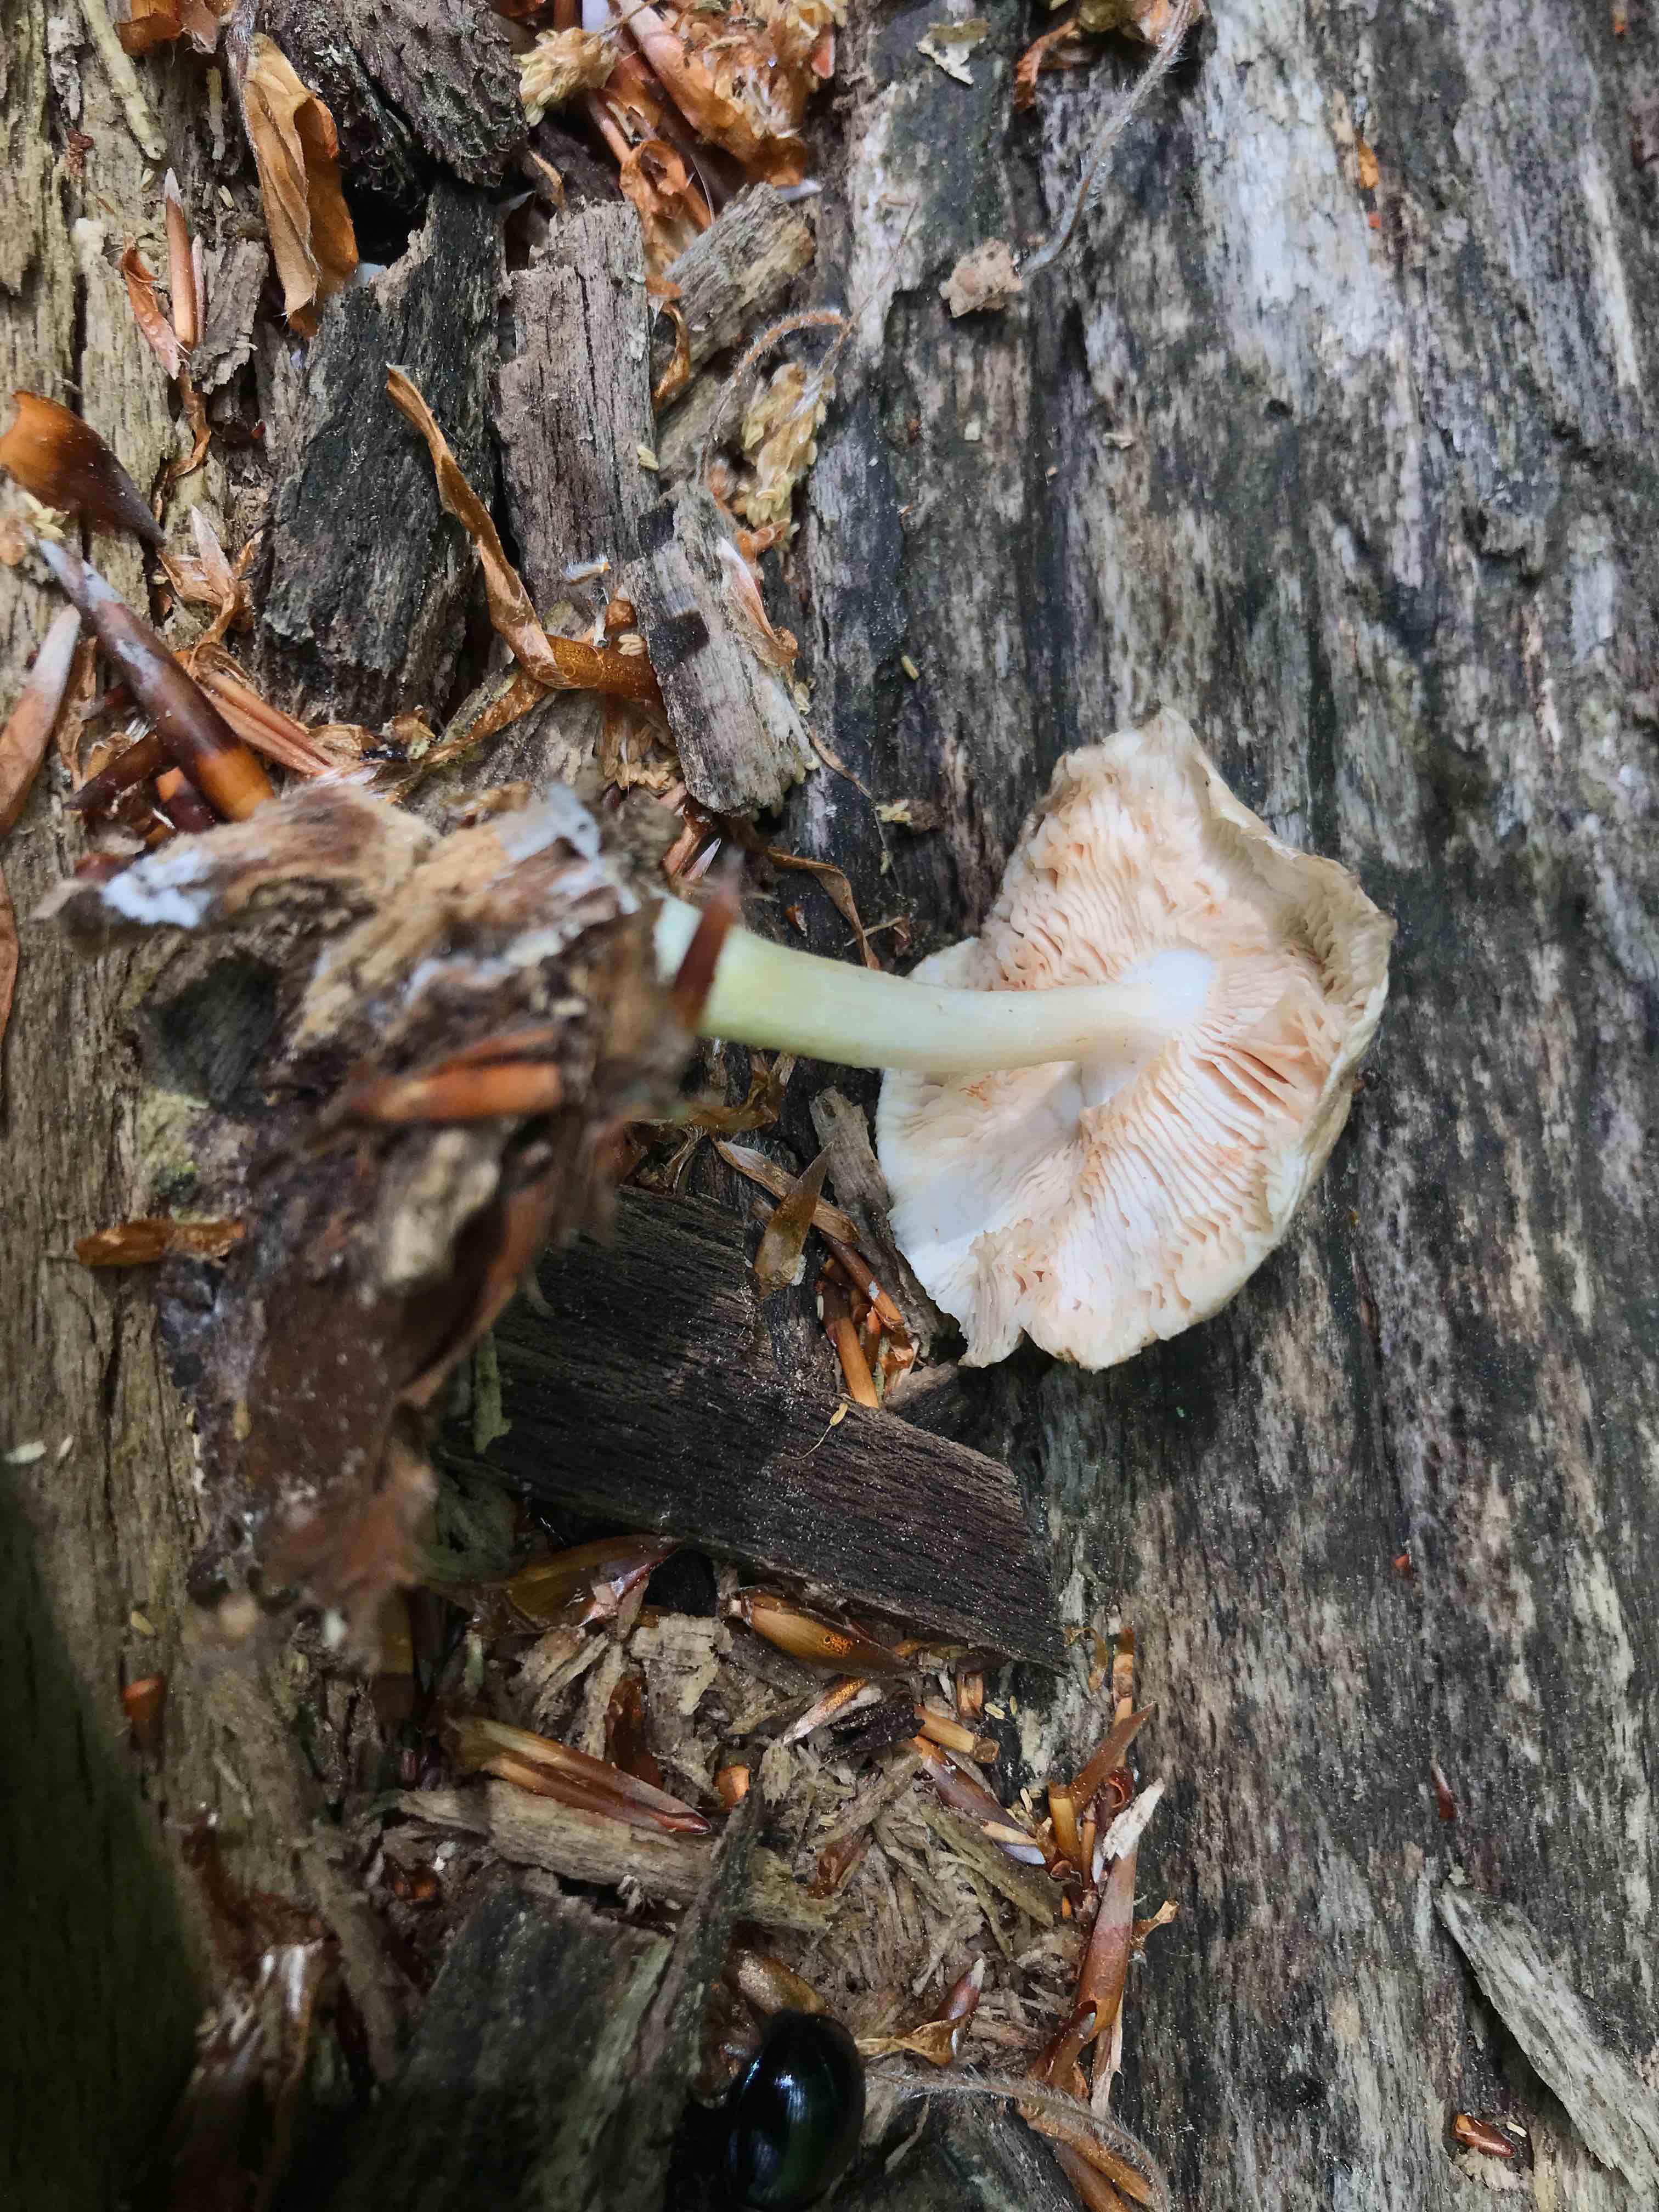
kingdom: Fungi
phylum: Basidiomycota
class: Agaricomycetes
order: Agaricales
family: Pluteaceae
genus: Pluteus
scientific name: Pluteus salicinus
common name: stiv skærmhat
